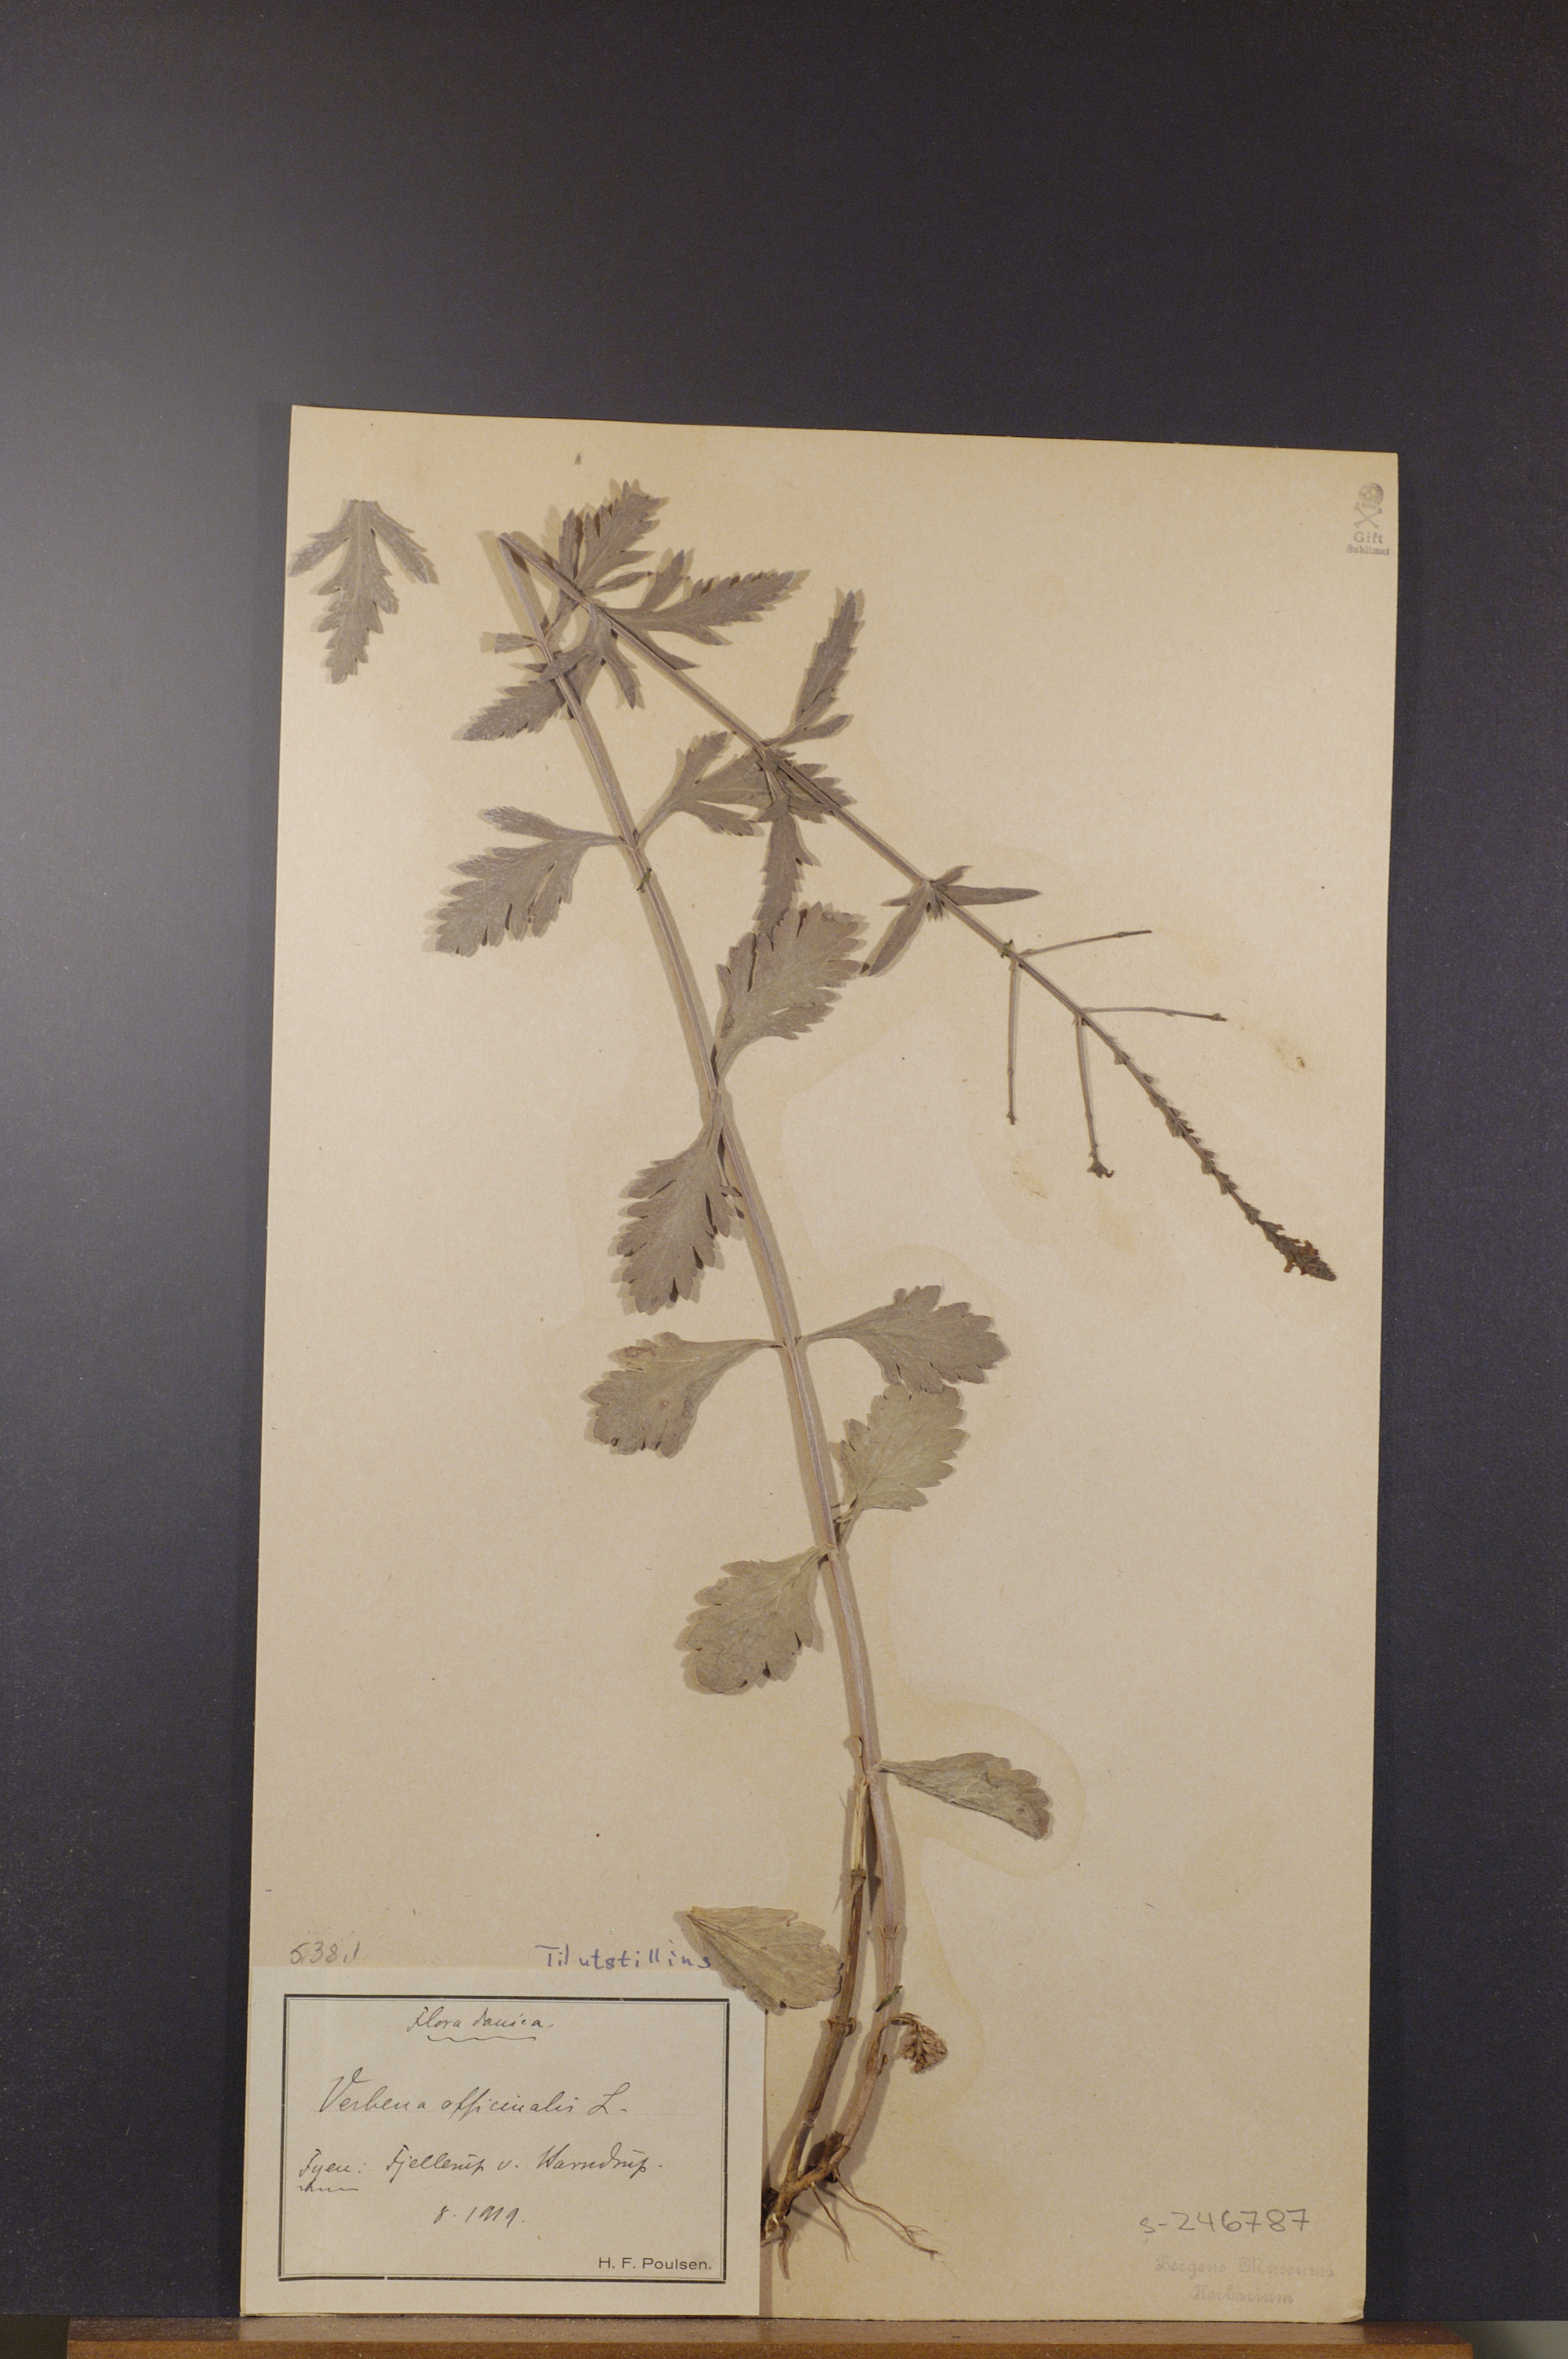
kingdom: Plantae
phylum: Tracheophyta
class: Magnoliopsida
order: Lamiales
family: Verbenaceae
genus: Verbena
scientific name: Verbena officinalis
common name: Vervain
